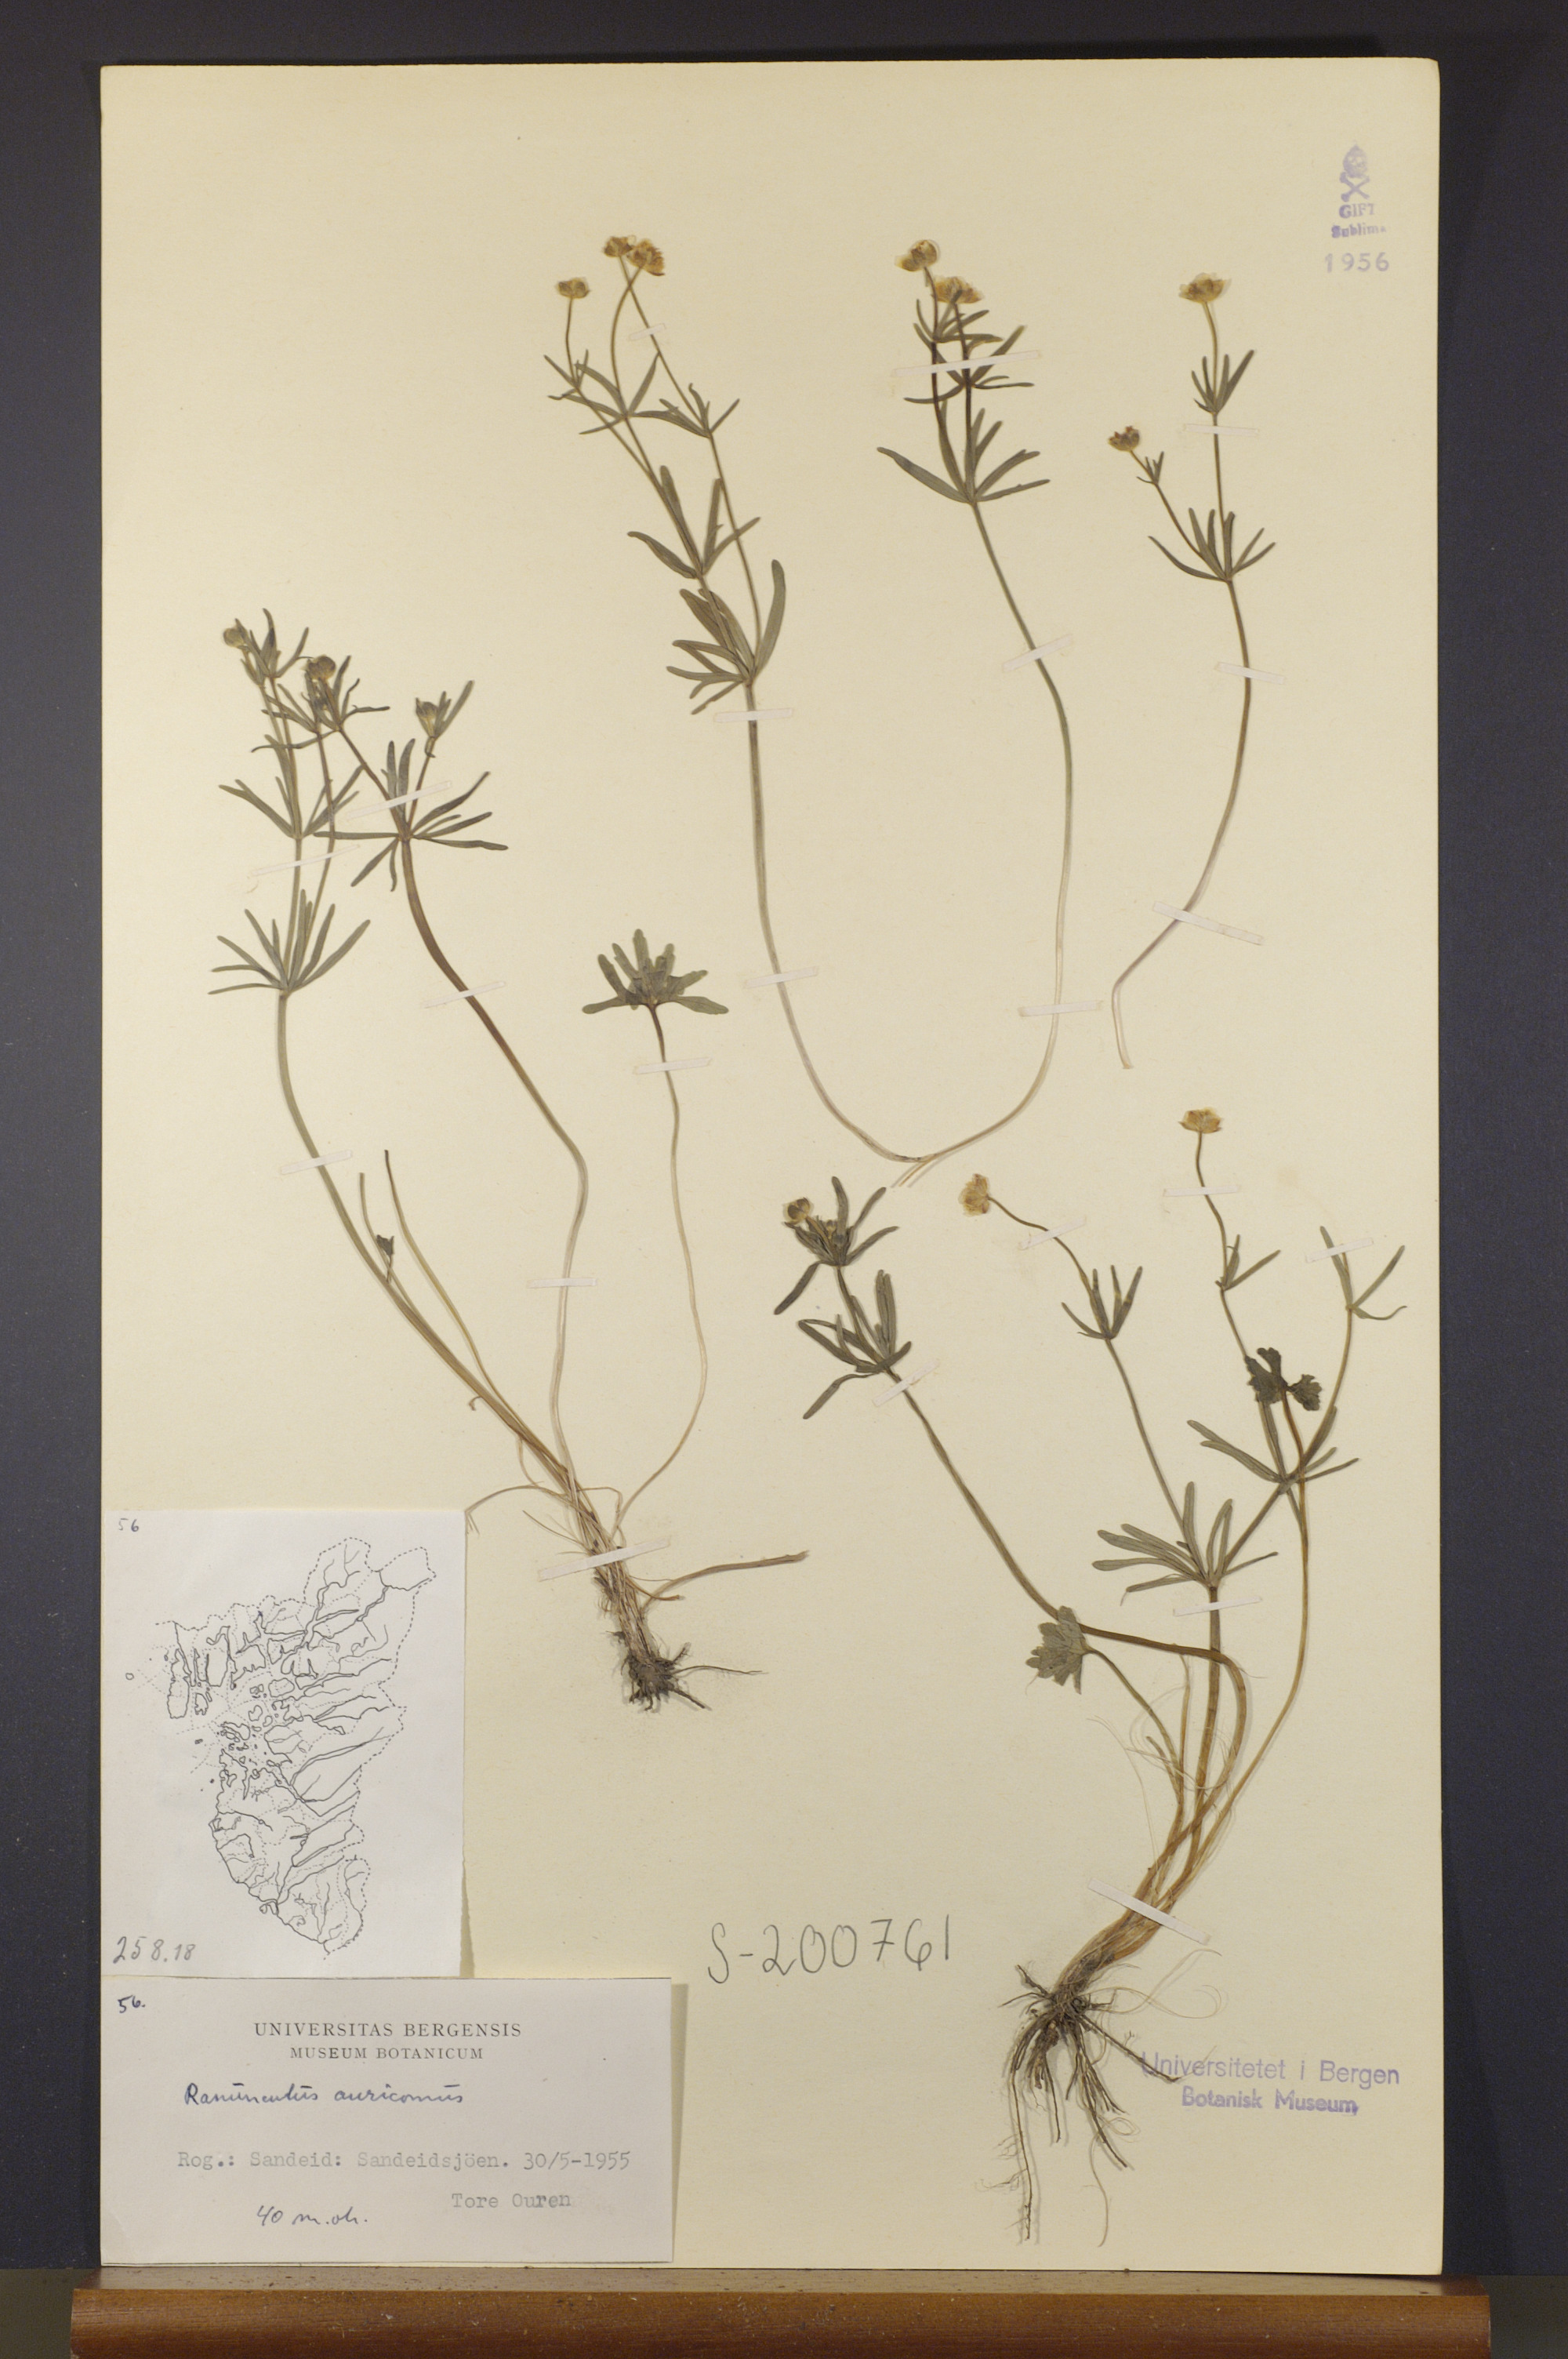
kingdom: Plantae
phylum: Tracheophyta
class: Magnoliopsida
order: Ranunculales
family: Ranunculaceae
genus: Ranunculus
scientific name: Ranunculus auricomus
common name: Goldilocks buttercup
